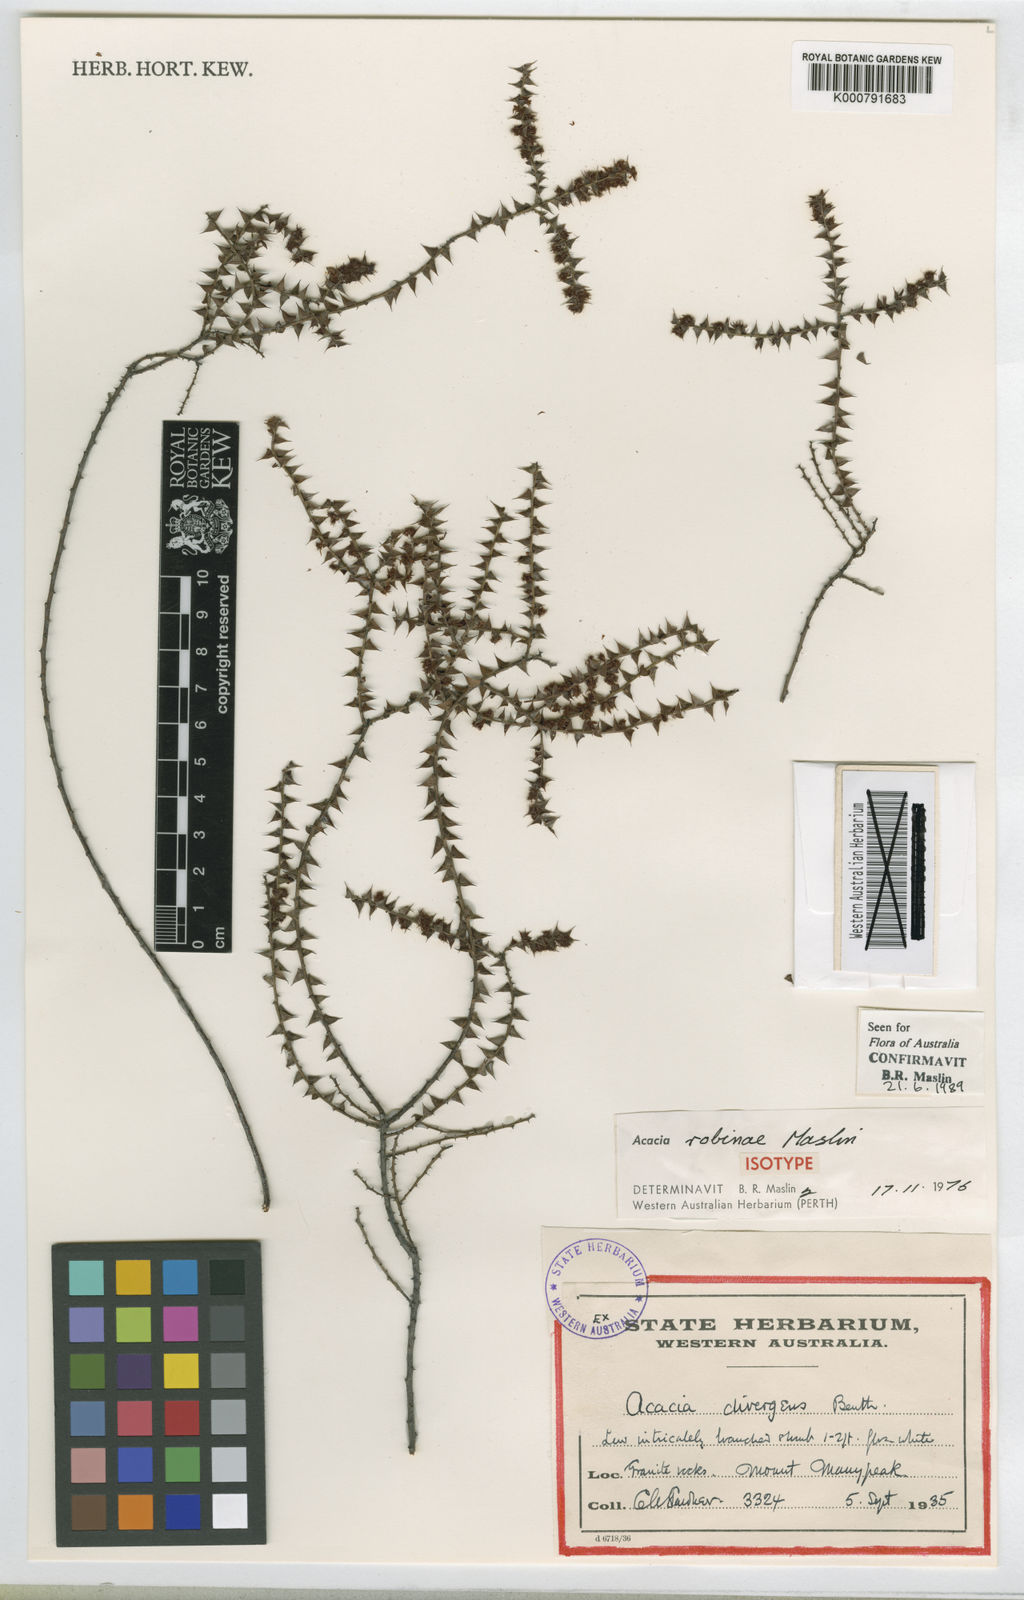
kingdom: Plantae
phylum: Tracheophyta
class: Magnoliopsida
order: Fabales
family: Fabaceae
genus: Acacia
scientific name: Acacia robiniae
